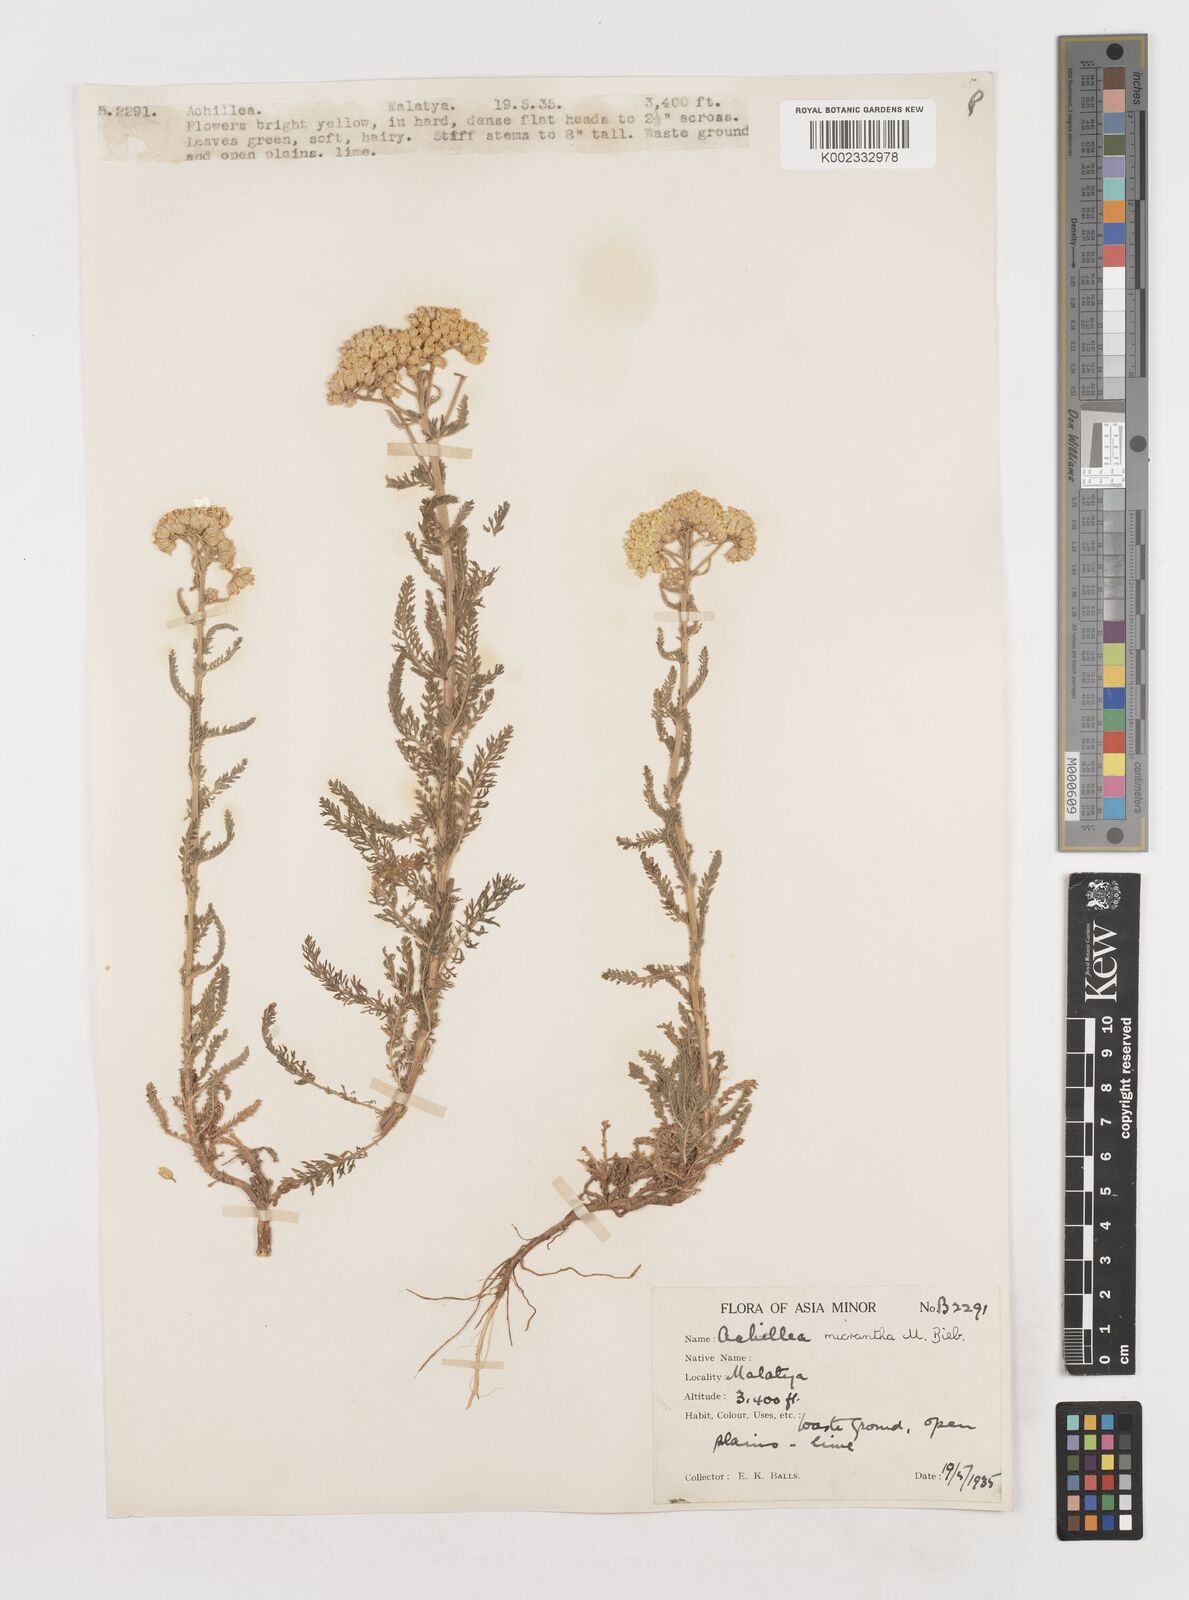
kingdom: Plantae
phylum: Tracheophyta
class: Magnoliopsida
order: Asterales
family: Asteraceae
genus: Achillea
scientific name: Achillea arabica
